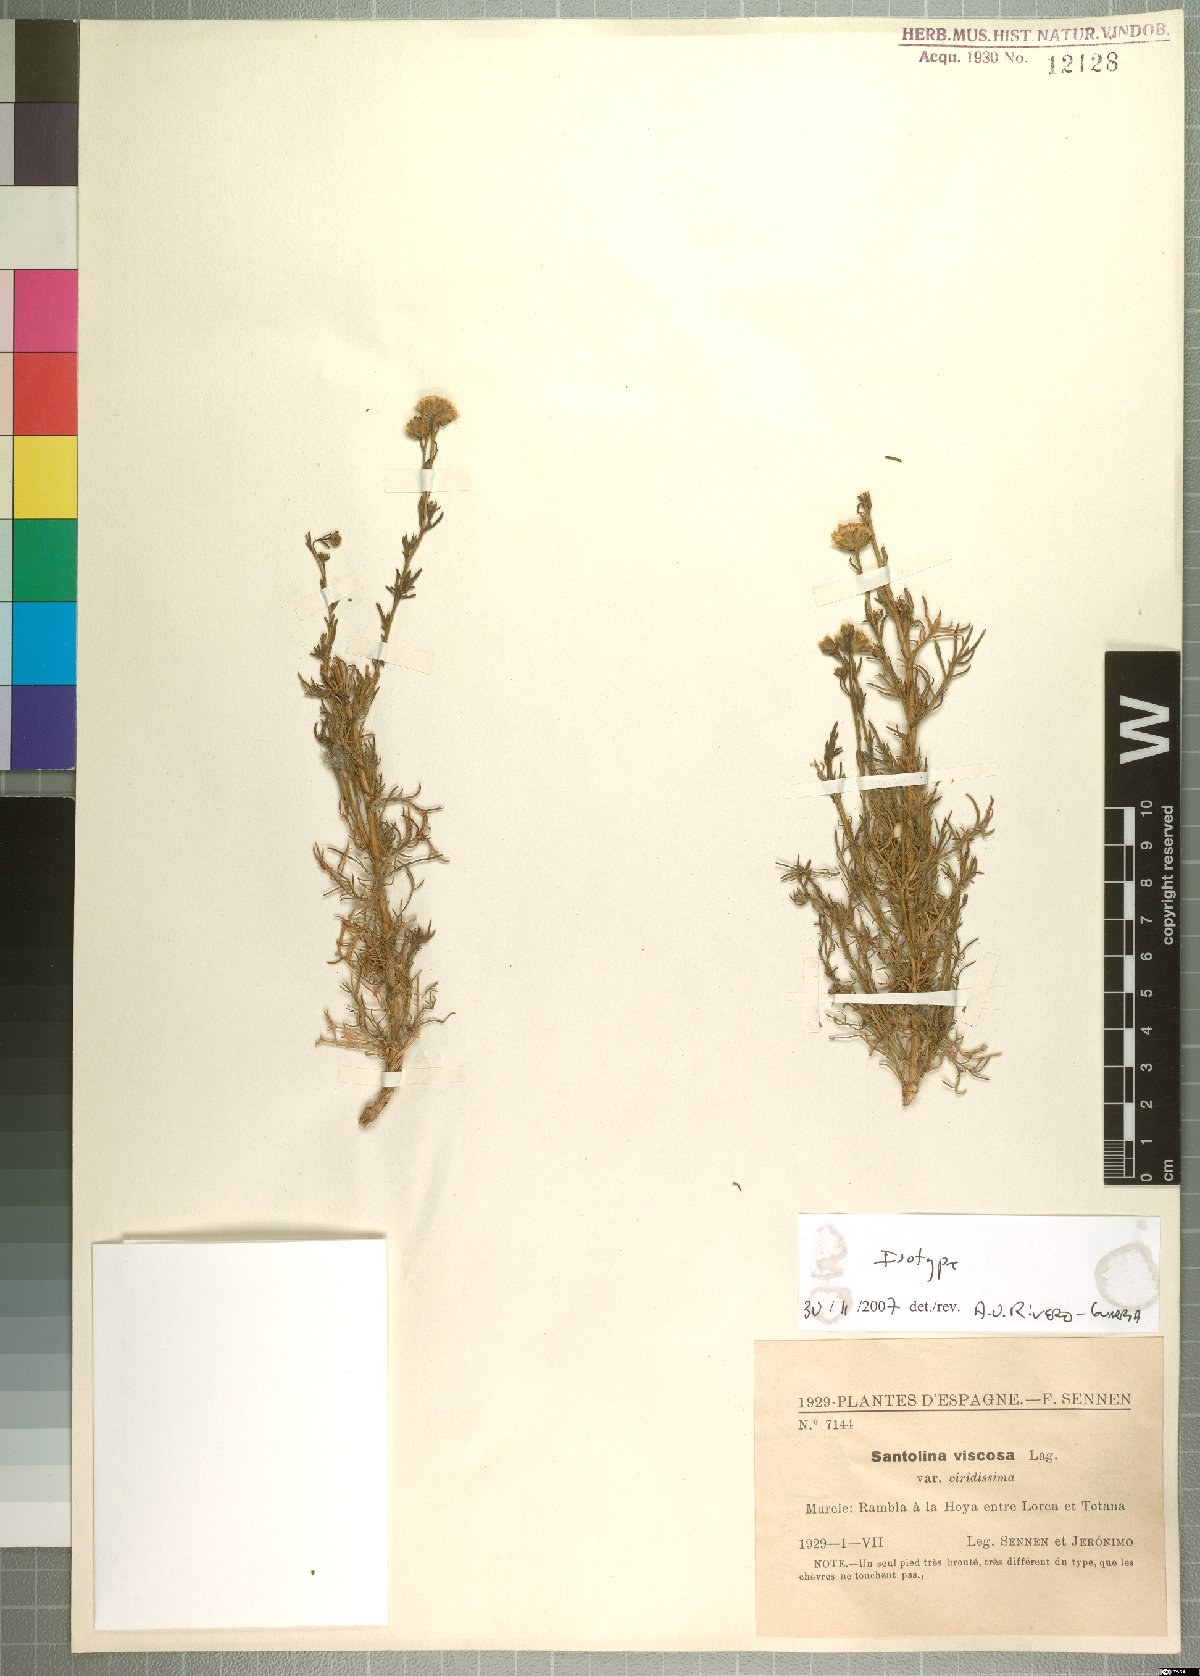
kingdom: Plantae
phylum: Tracheophyta
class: Magnoliopsida
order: Asterales
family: Asteraceae
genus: Santolina
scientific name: Santolina viscosa
